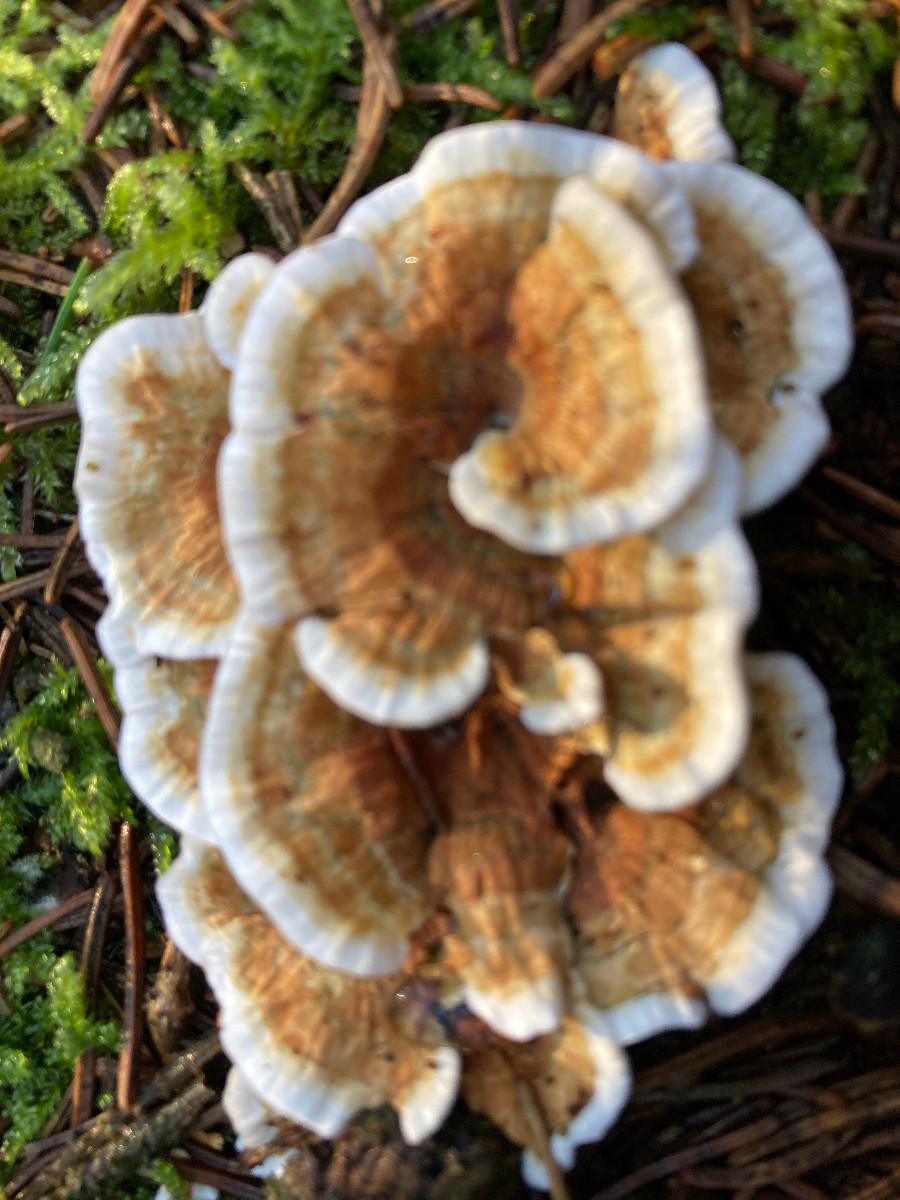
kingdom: Fungi
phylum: Basidiomycota
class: Agaricomycetes
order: Polyporales
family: Dacryobolaceae
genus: Oligoporus
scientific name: Oligoporus wakefieldiae
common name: række-kødporesvamp
